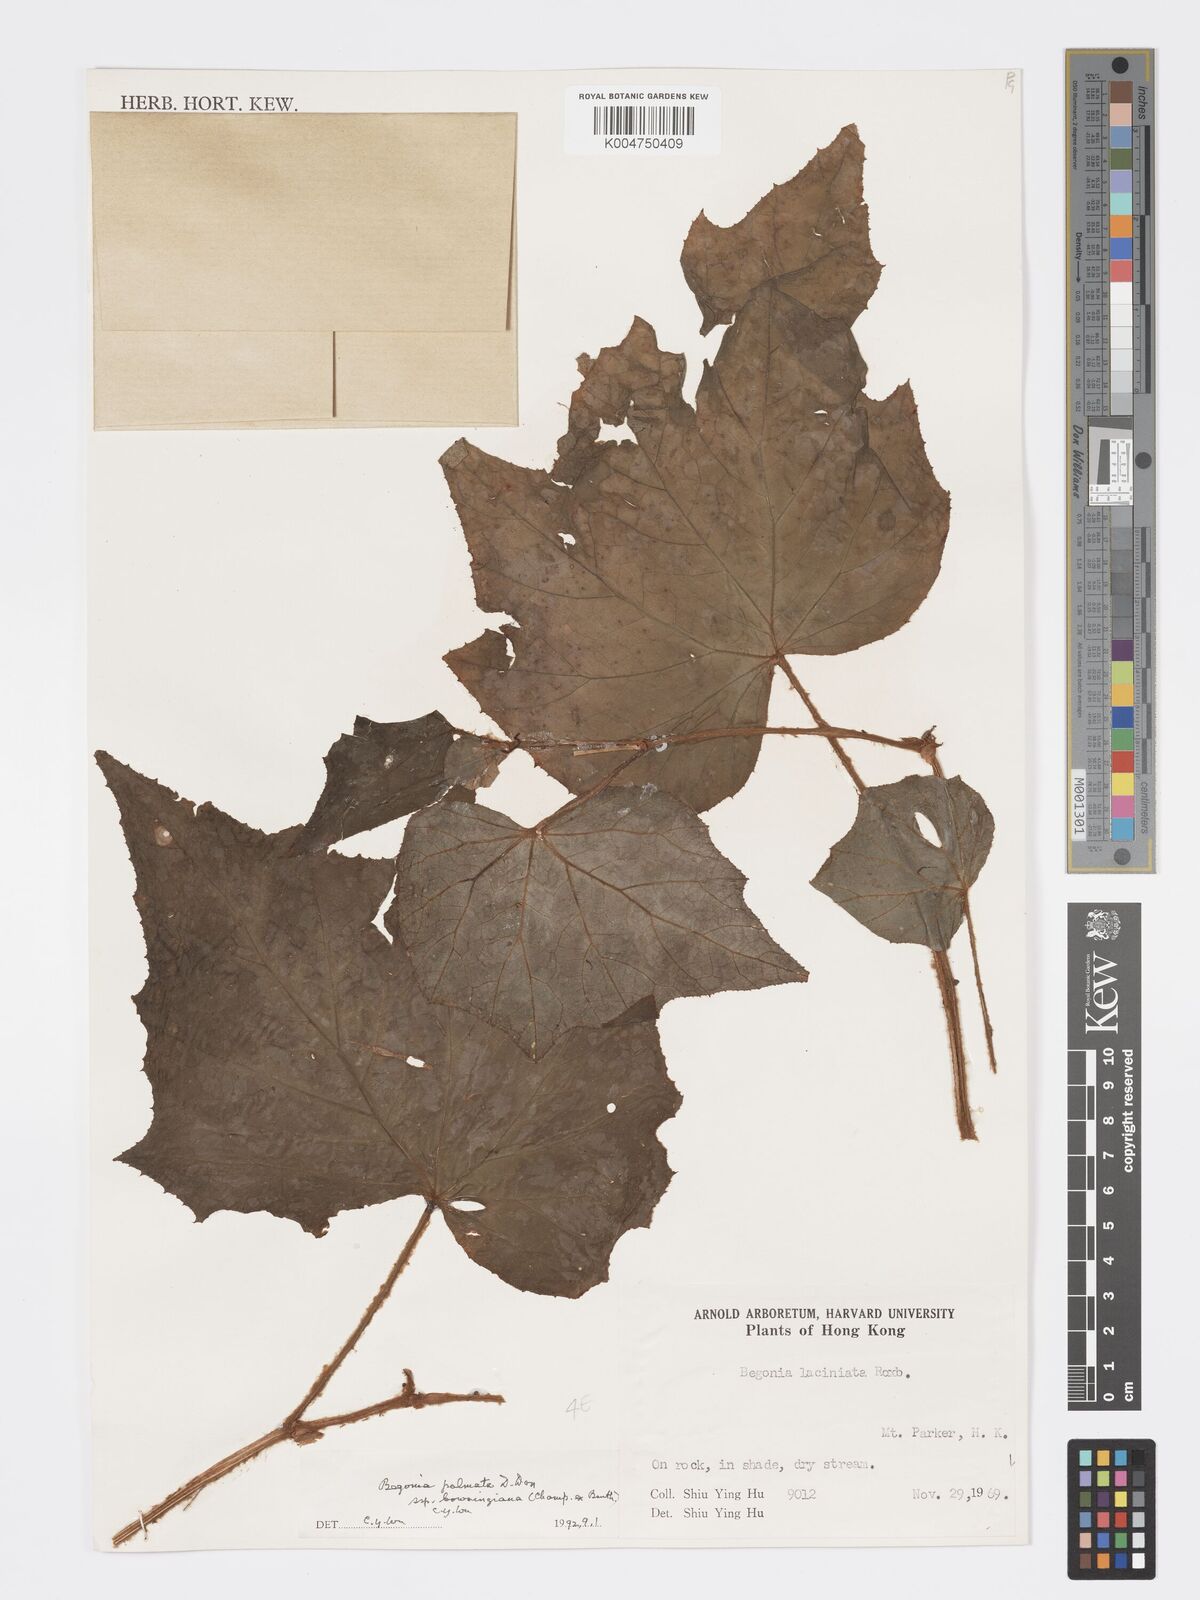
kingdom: Plantae
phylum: Tracheophyta
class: Magnoliopsida
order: Cucurbitales
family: Begoniaceae
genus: Begonia
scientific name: Begonia
